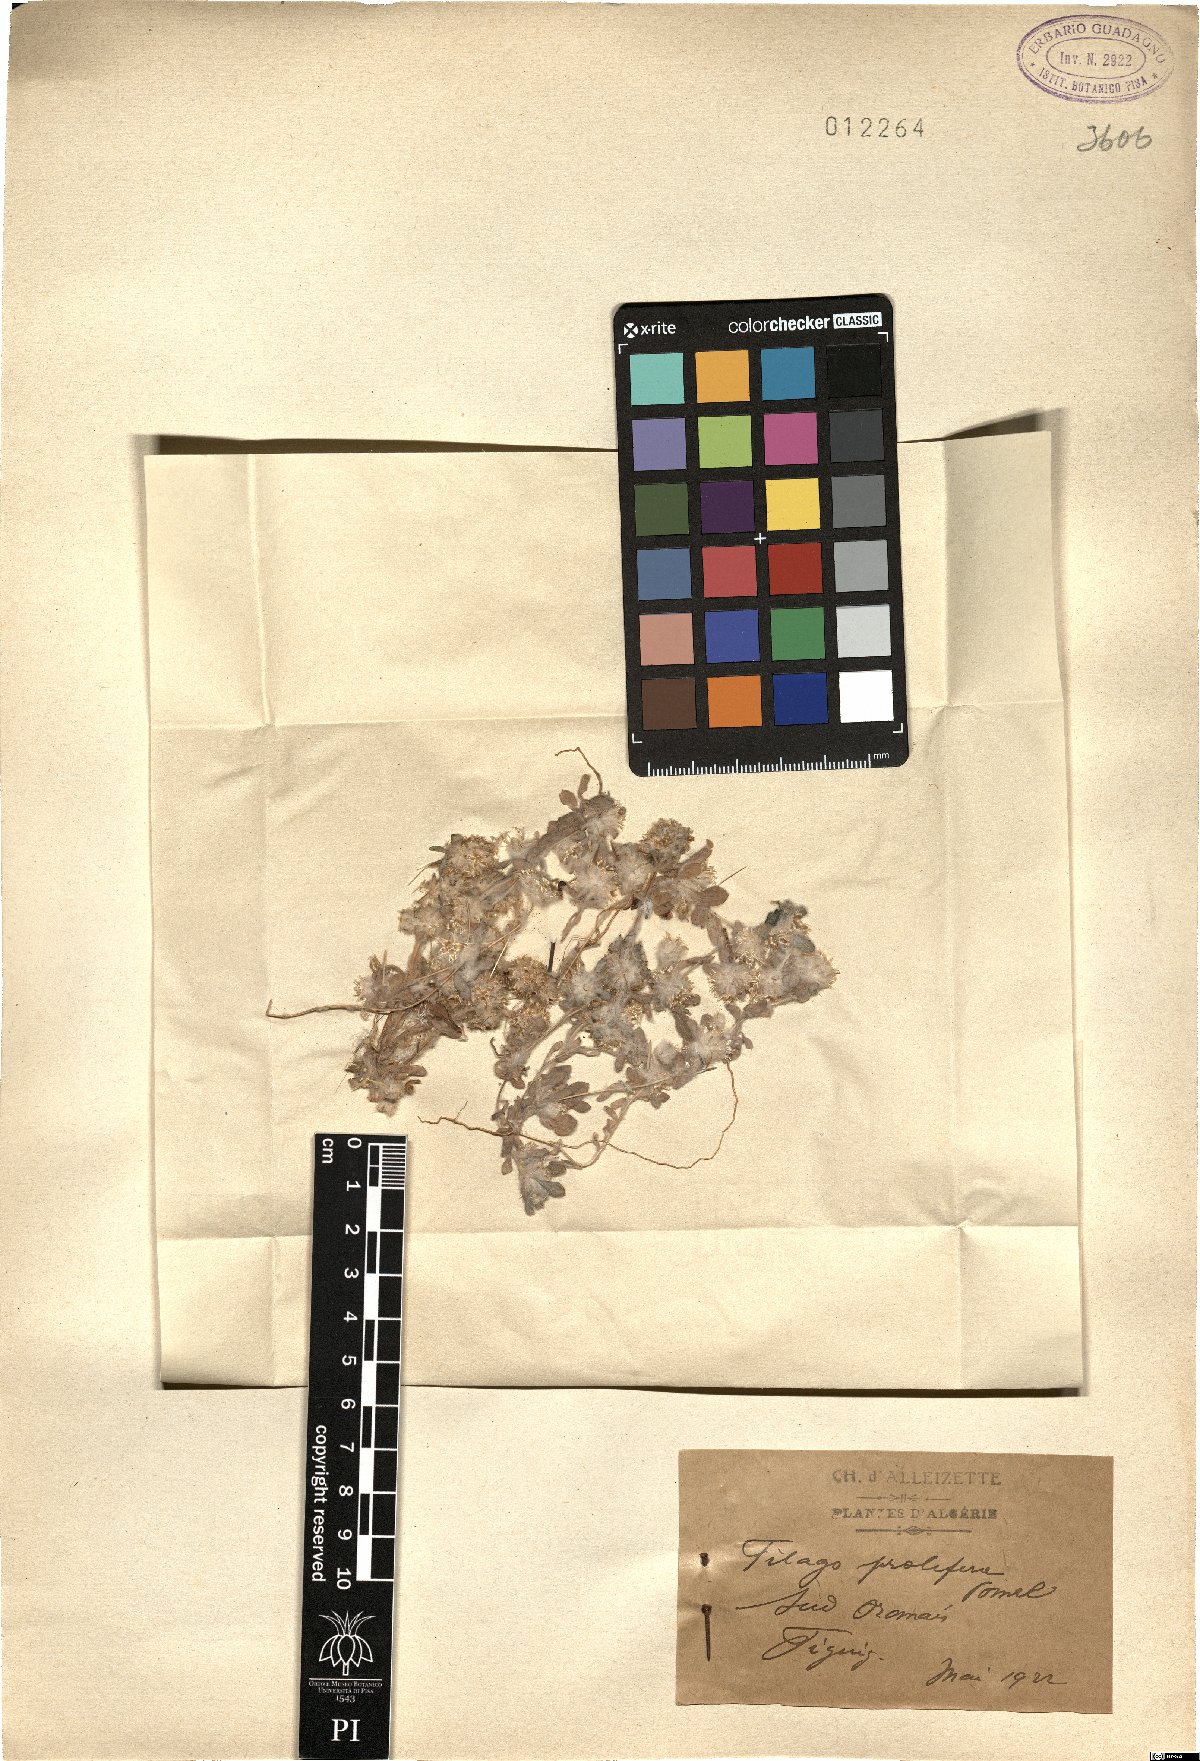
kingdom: Plantae
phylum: Tracheophyta
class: Magnoliopsida
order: Asterales
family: Asteraceae
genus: Filago
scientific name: Filago prolifera
